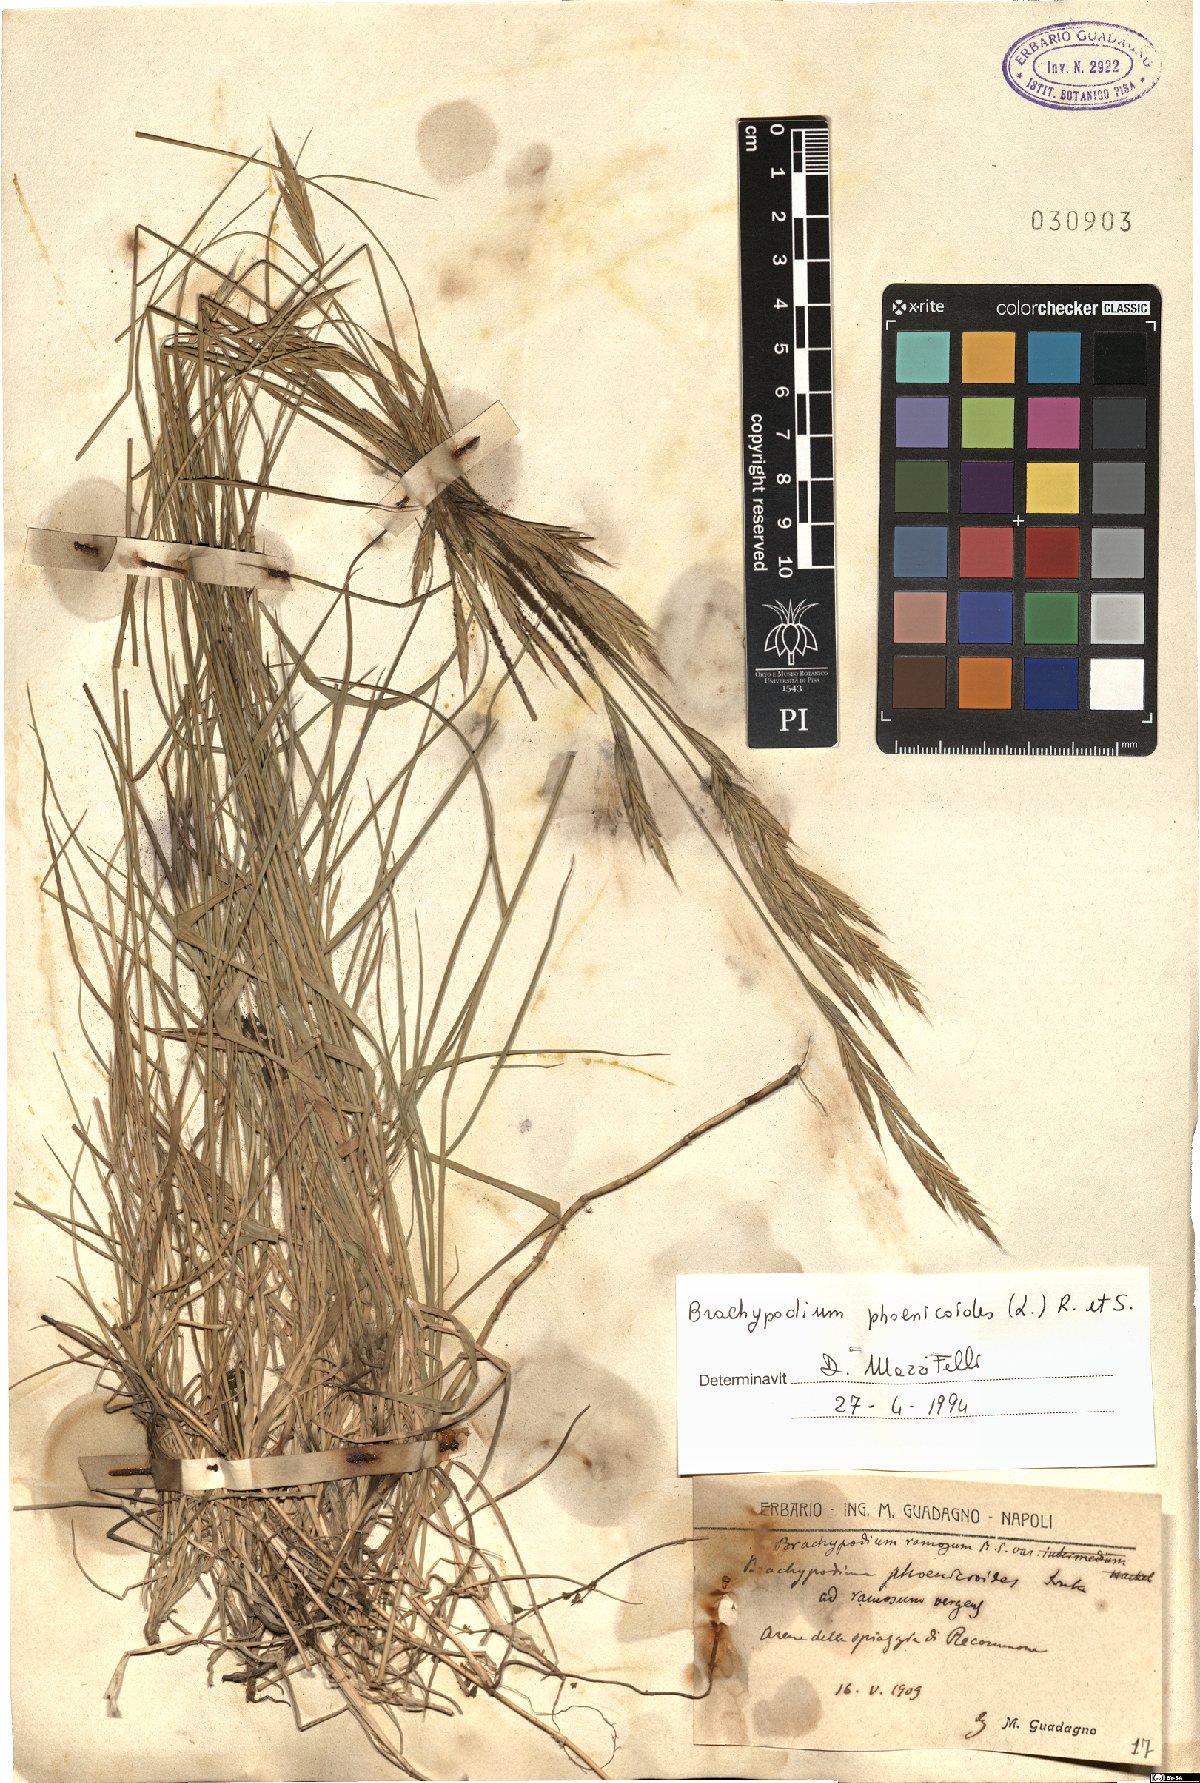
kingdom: Plantae
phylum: Tracheophyta
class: Liliopsida
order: Poales
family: Poaceae
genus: Brachypodium
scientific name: Brachypodium phoenicoides
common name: Thinleaf false brome
